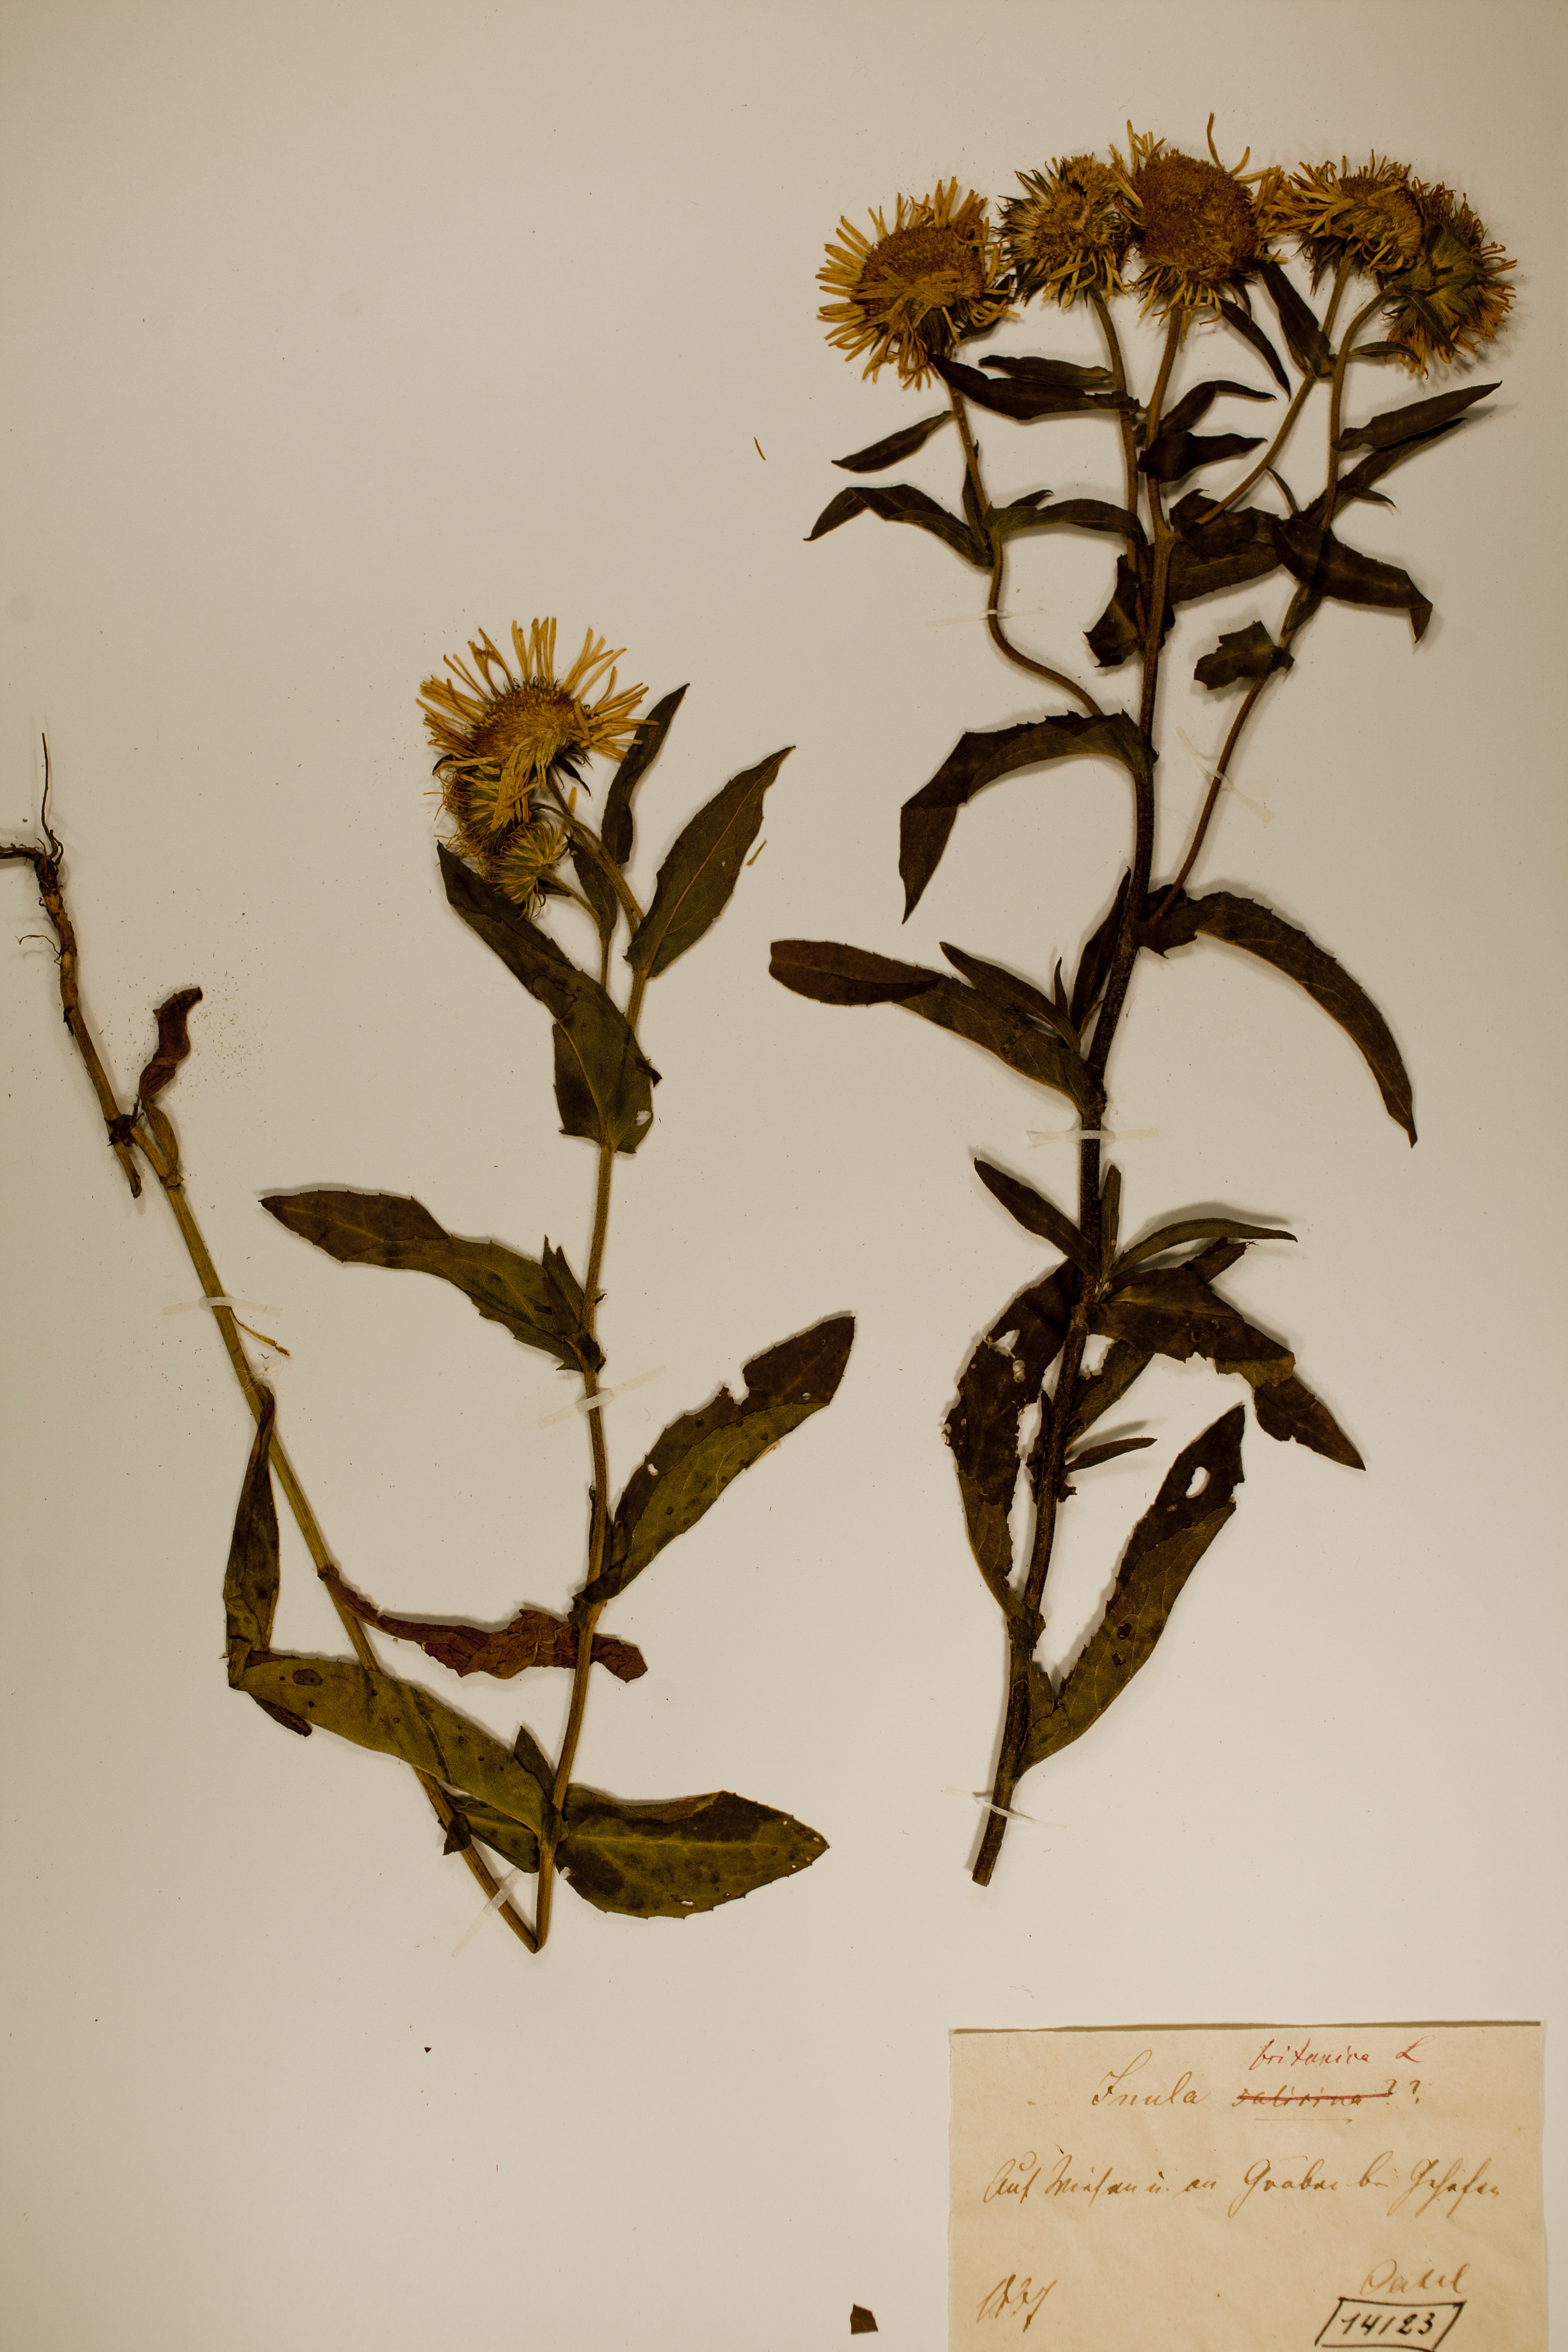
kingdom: Plantae
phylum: Tracheophyta
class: Magnoliopsida
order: Asterales
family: Asteraceae
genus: Pentanema
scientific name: Pentanema britannicum
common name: British elecampane
